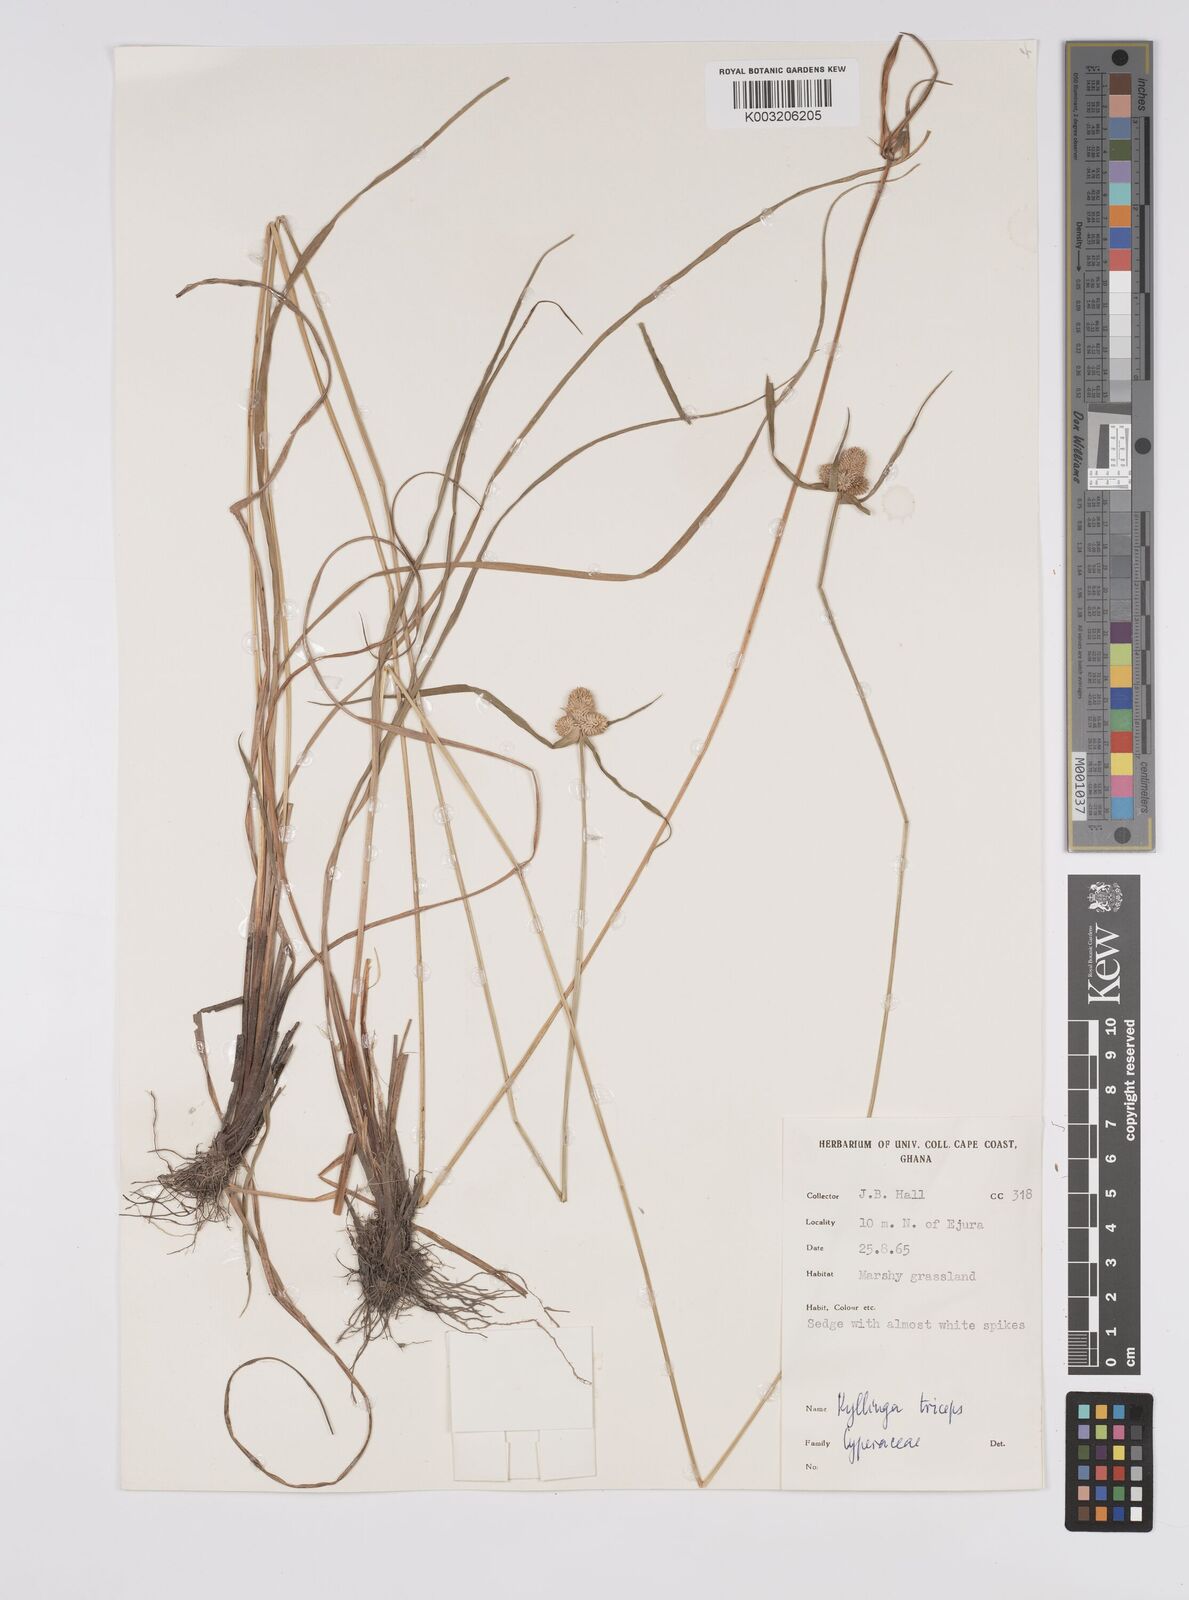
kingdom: Plantae
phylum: Tracheophyta
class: Liliopsida
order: Poales
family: Cyperaceae
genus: Cyperus
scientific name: Cyperus
